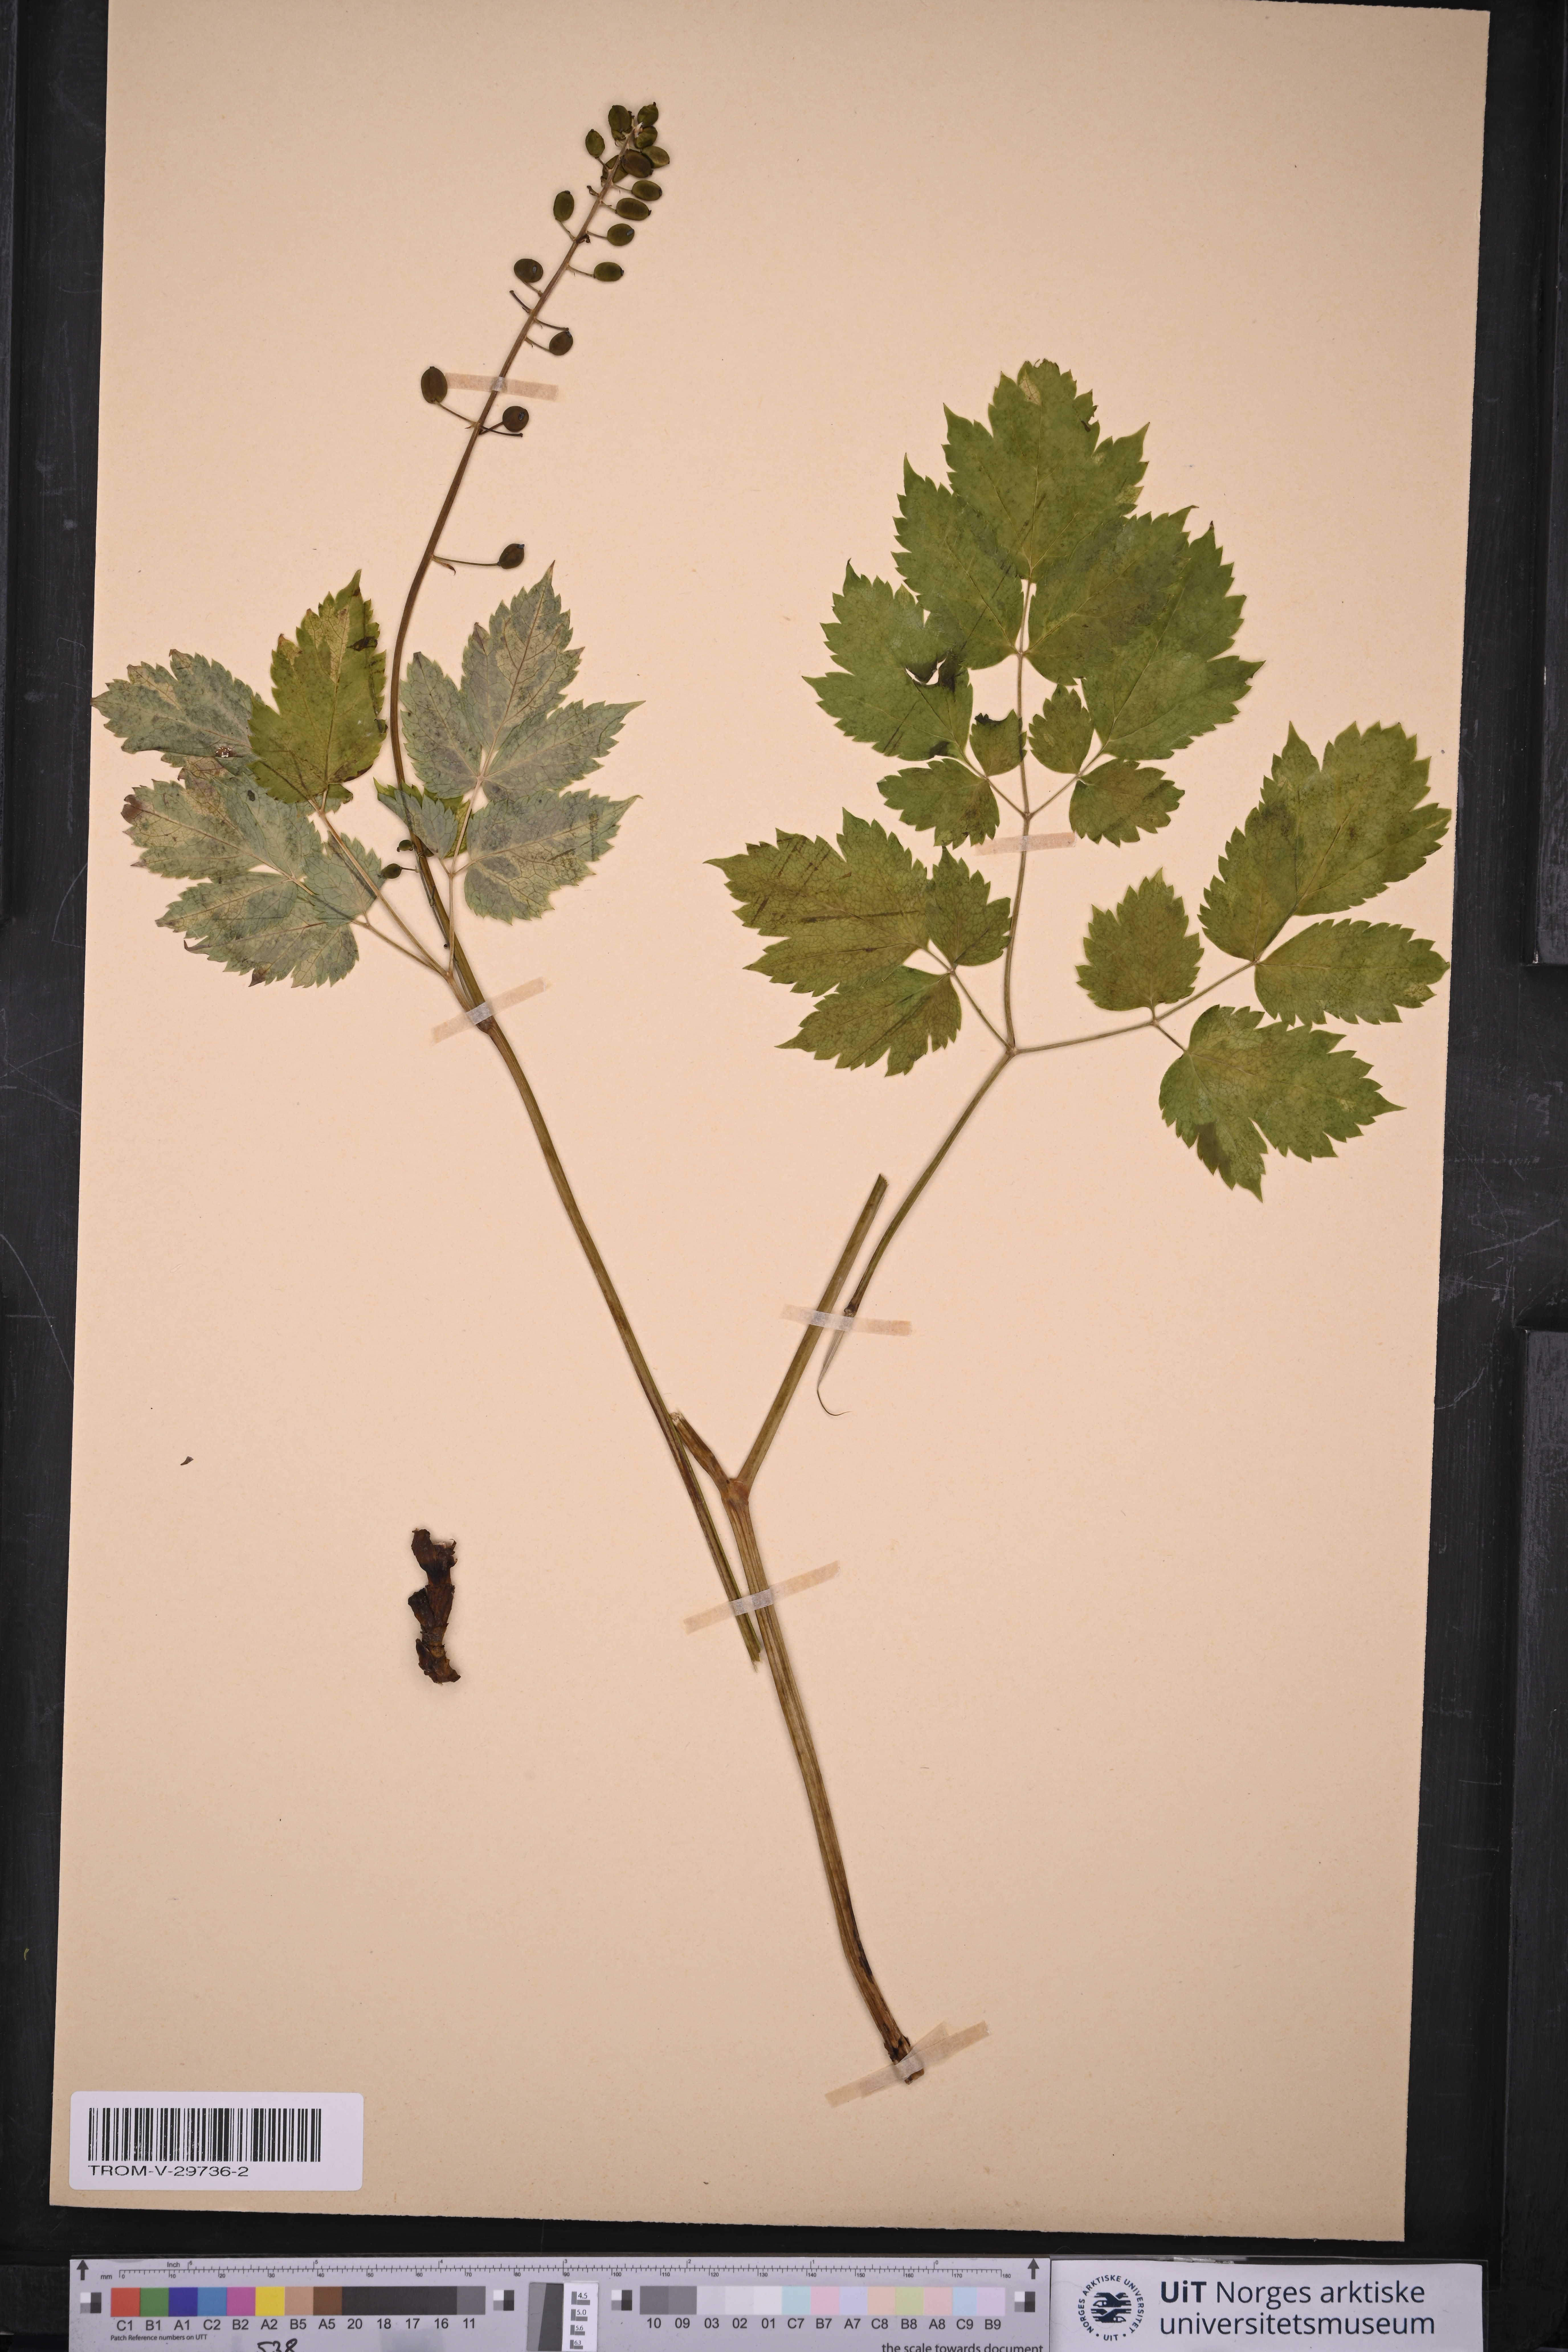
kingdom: Plantae
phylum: Tracheophyta
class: Magnoliopsida
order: Ranunculales
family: Ranunculaceae
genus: Actaea
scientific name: Actaea spicata
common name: Baneberry
